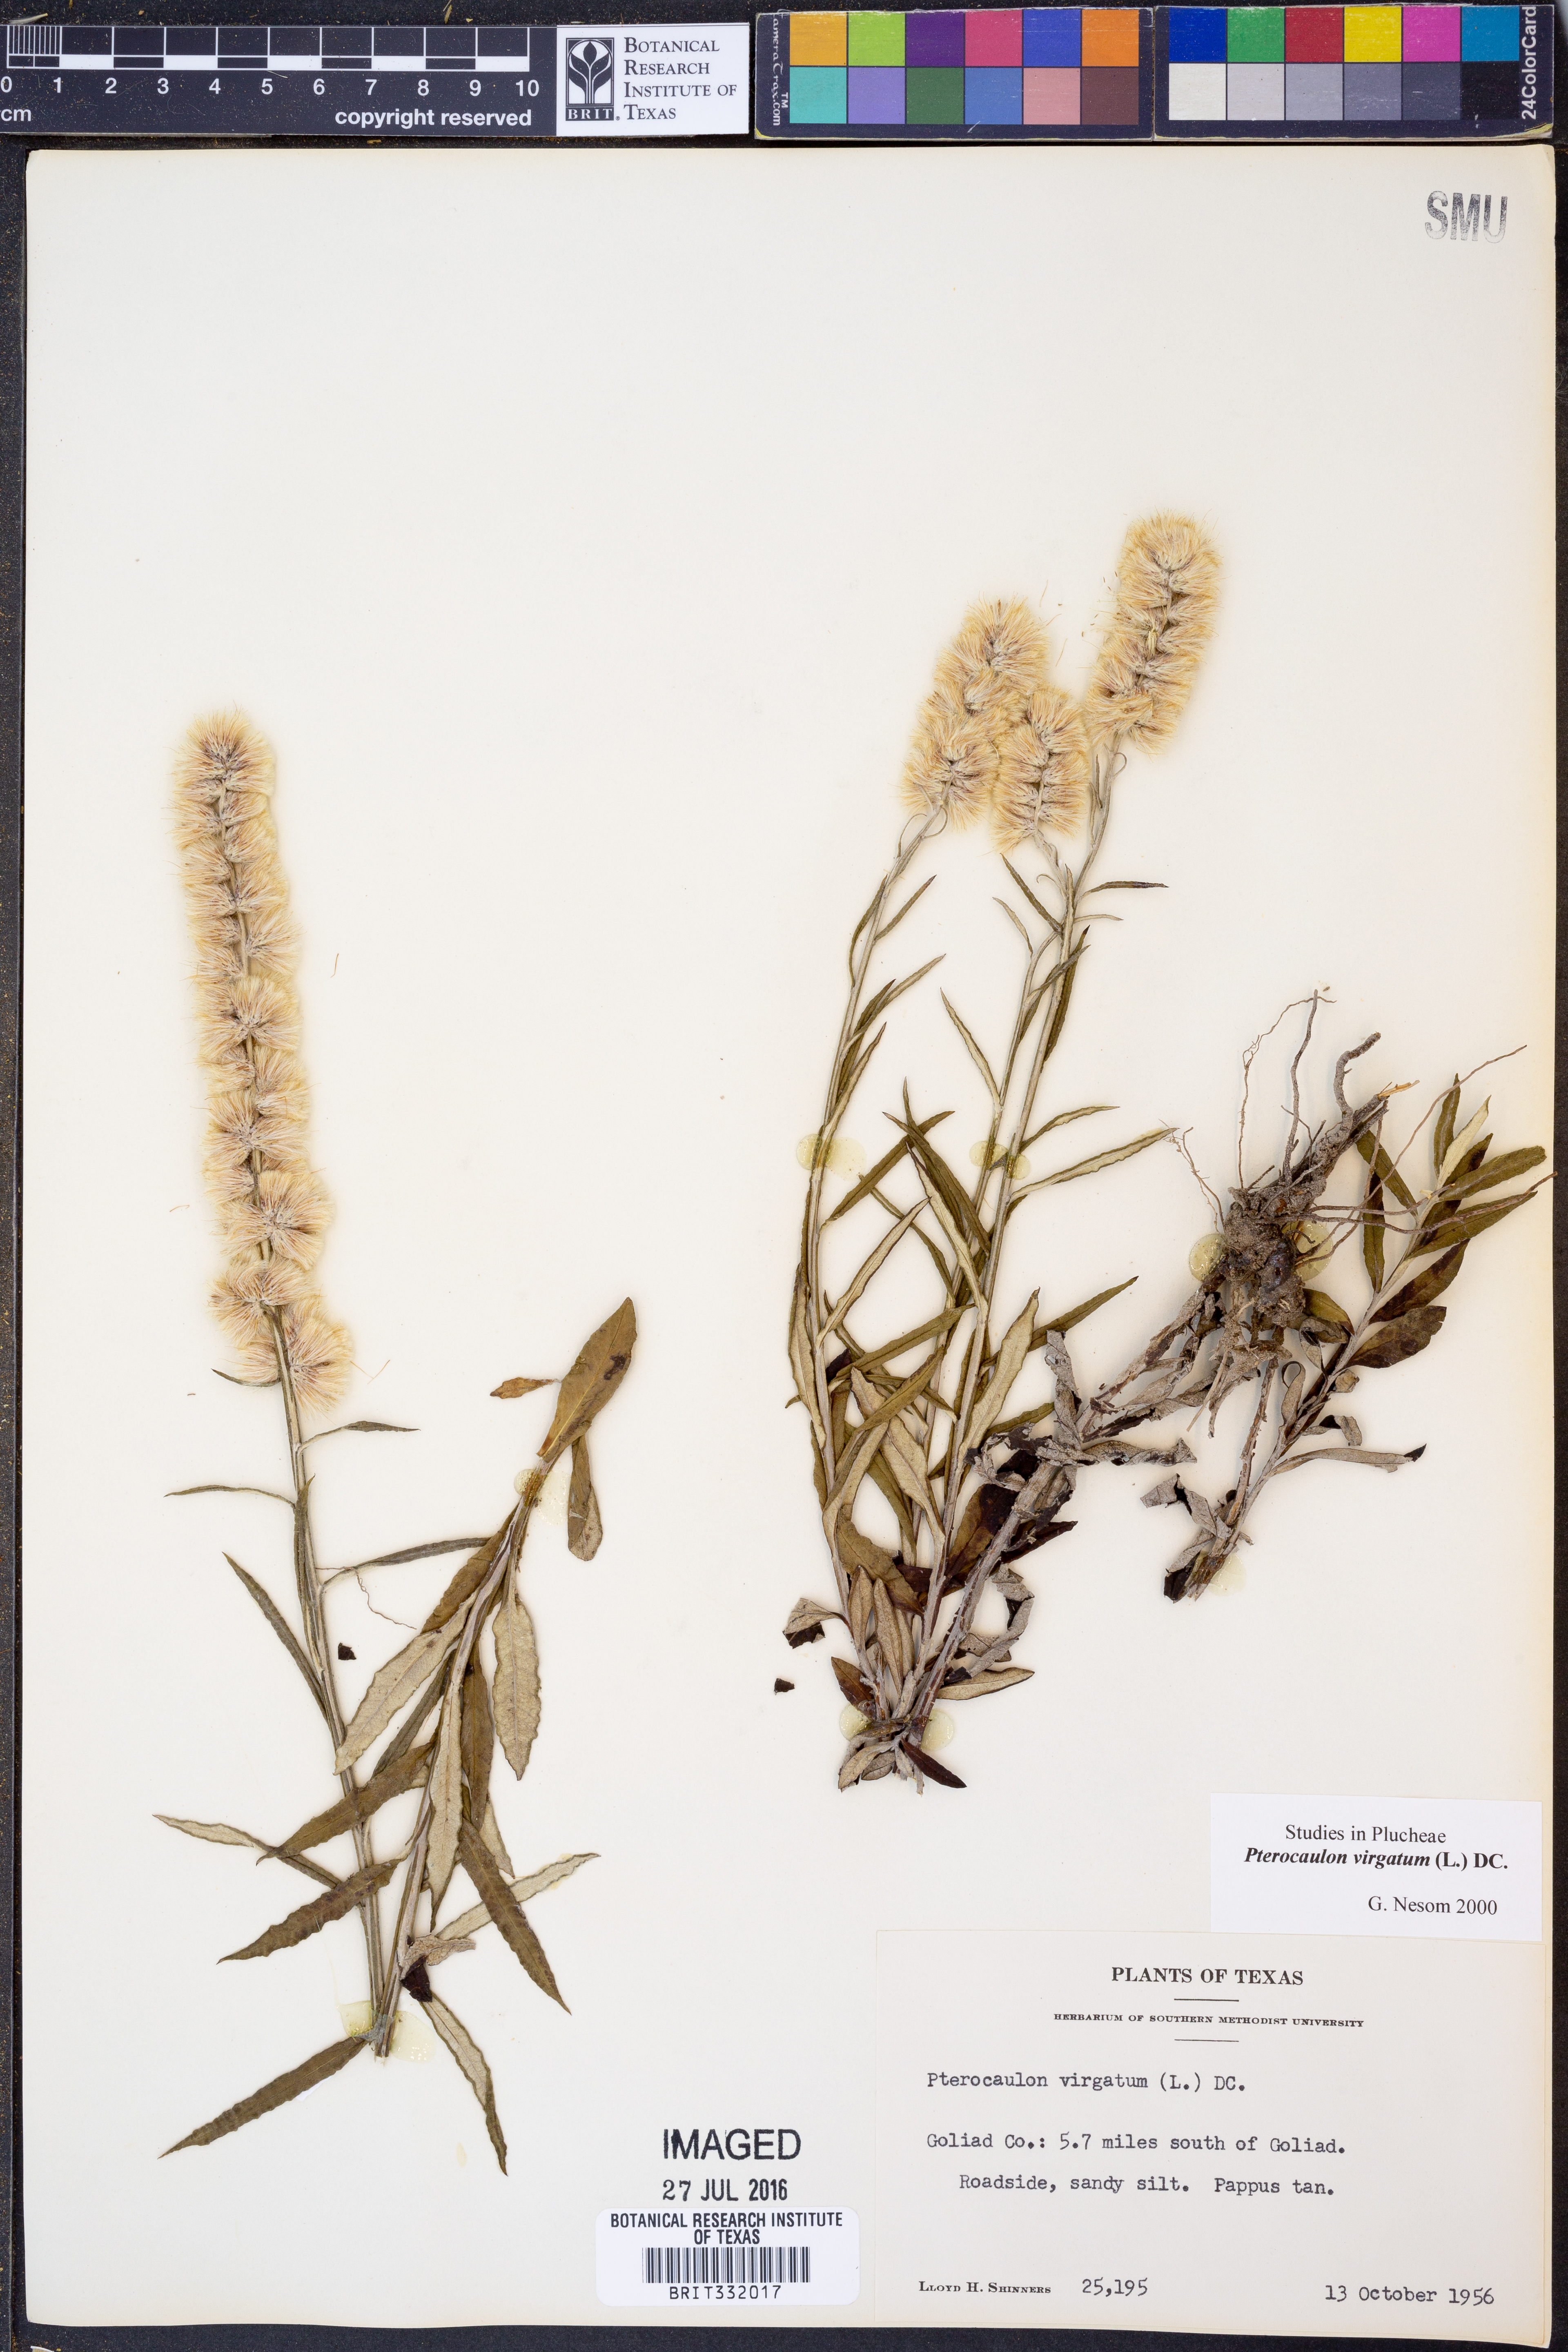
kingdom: Plantae
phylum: Tracheophyta
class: Magnoliopsida
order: Asterales
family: Asteraceae
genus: Pterocaulon
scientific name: Pterocaulon virgatum
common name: Wand blackroot
